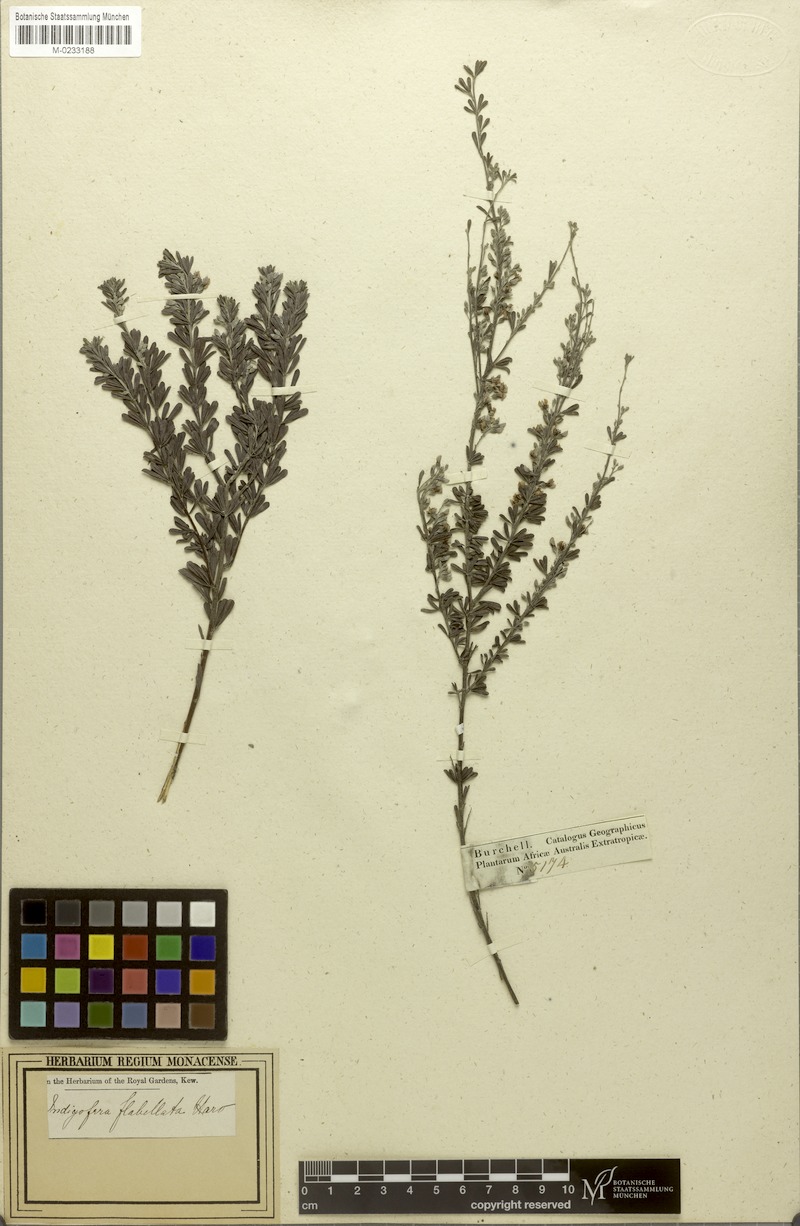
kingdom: Plantae
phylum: Tracheophyta
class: Magnoliopsida
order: Fabales
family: Fabaceae
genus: Indigofera
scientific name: Indigofera flabellata
